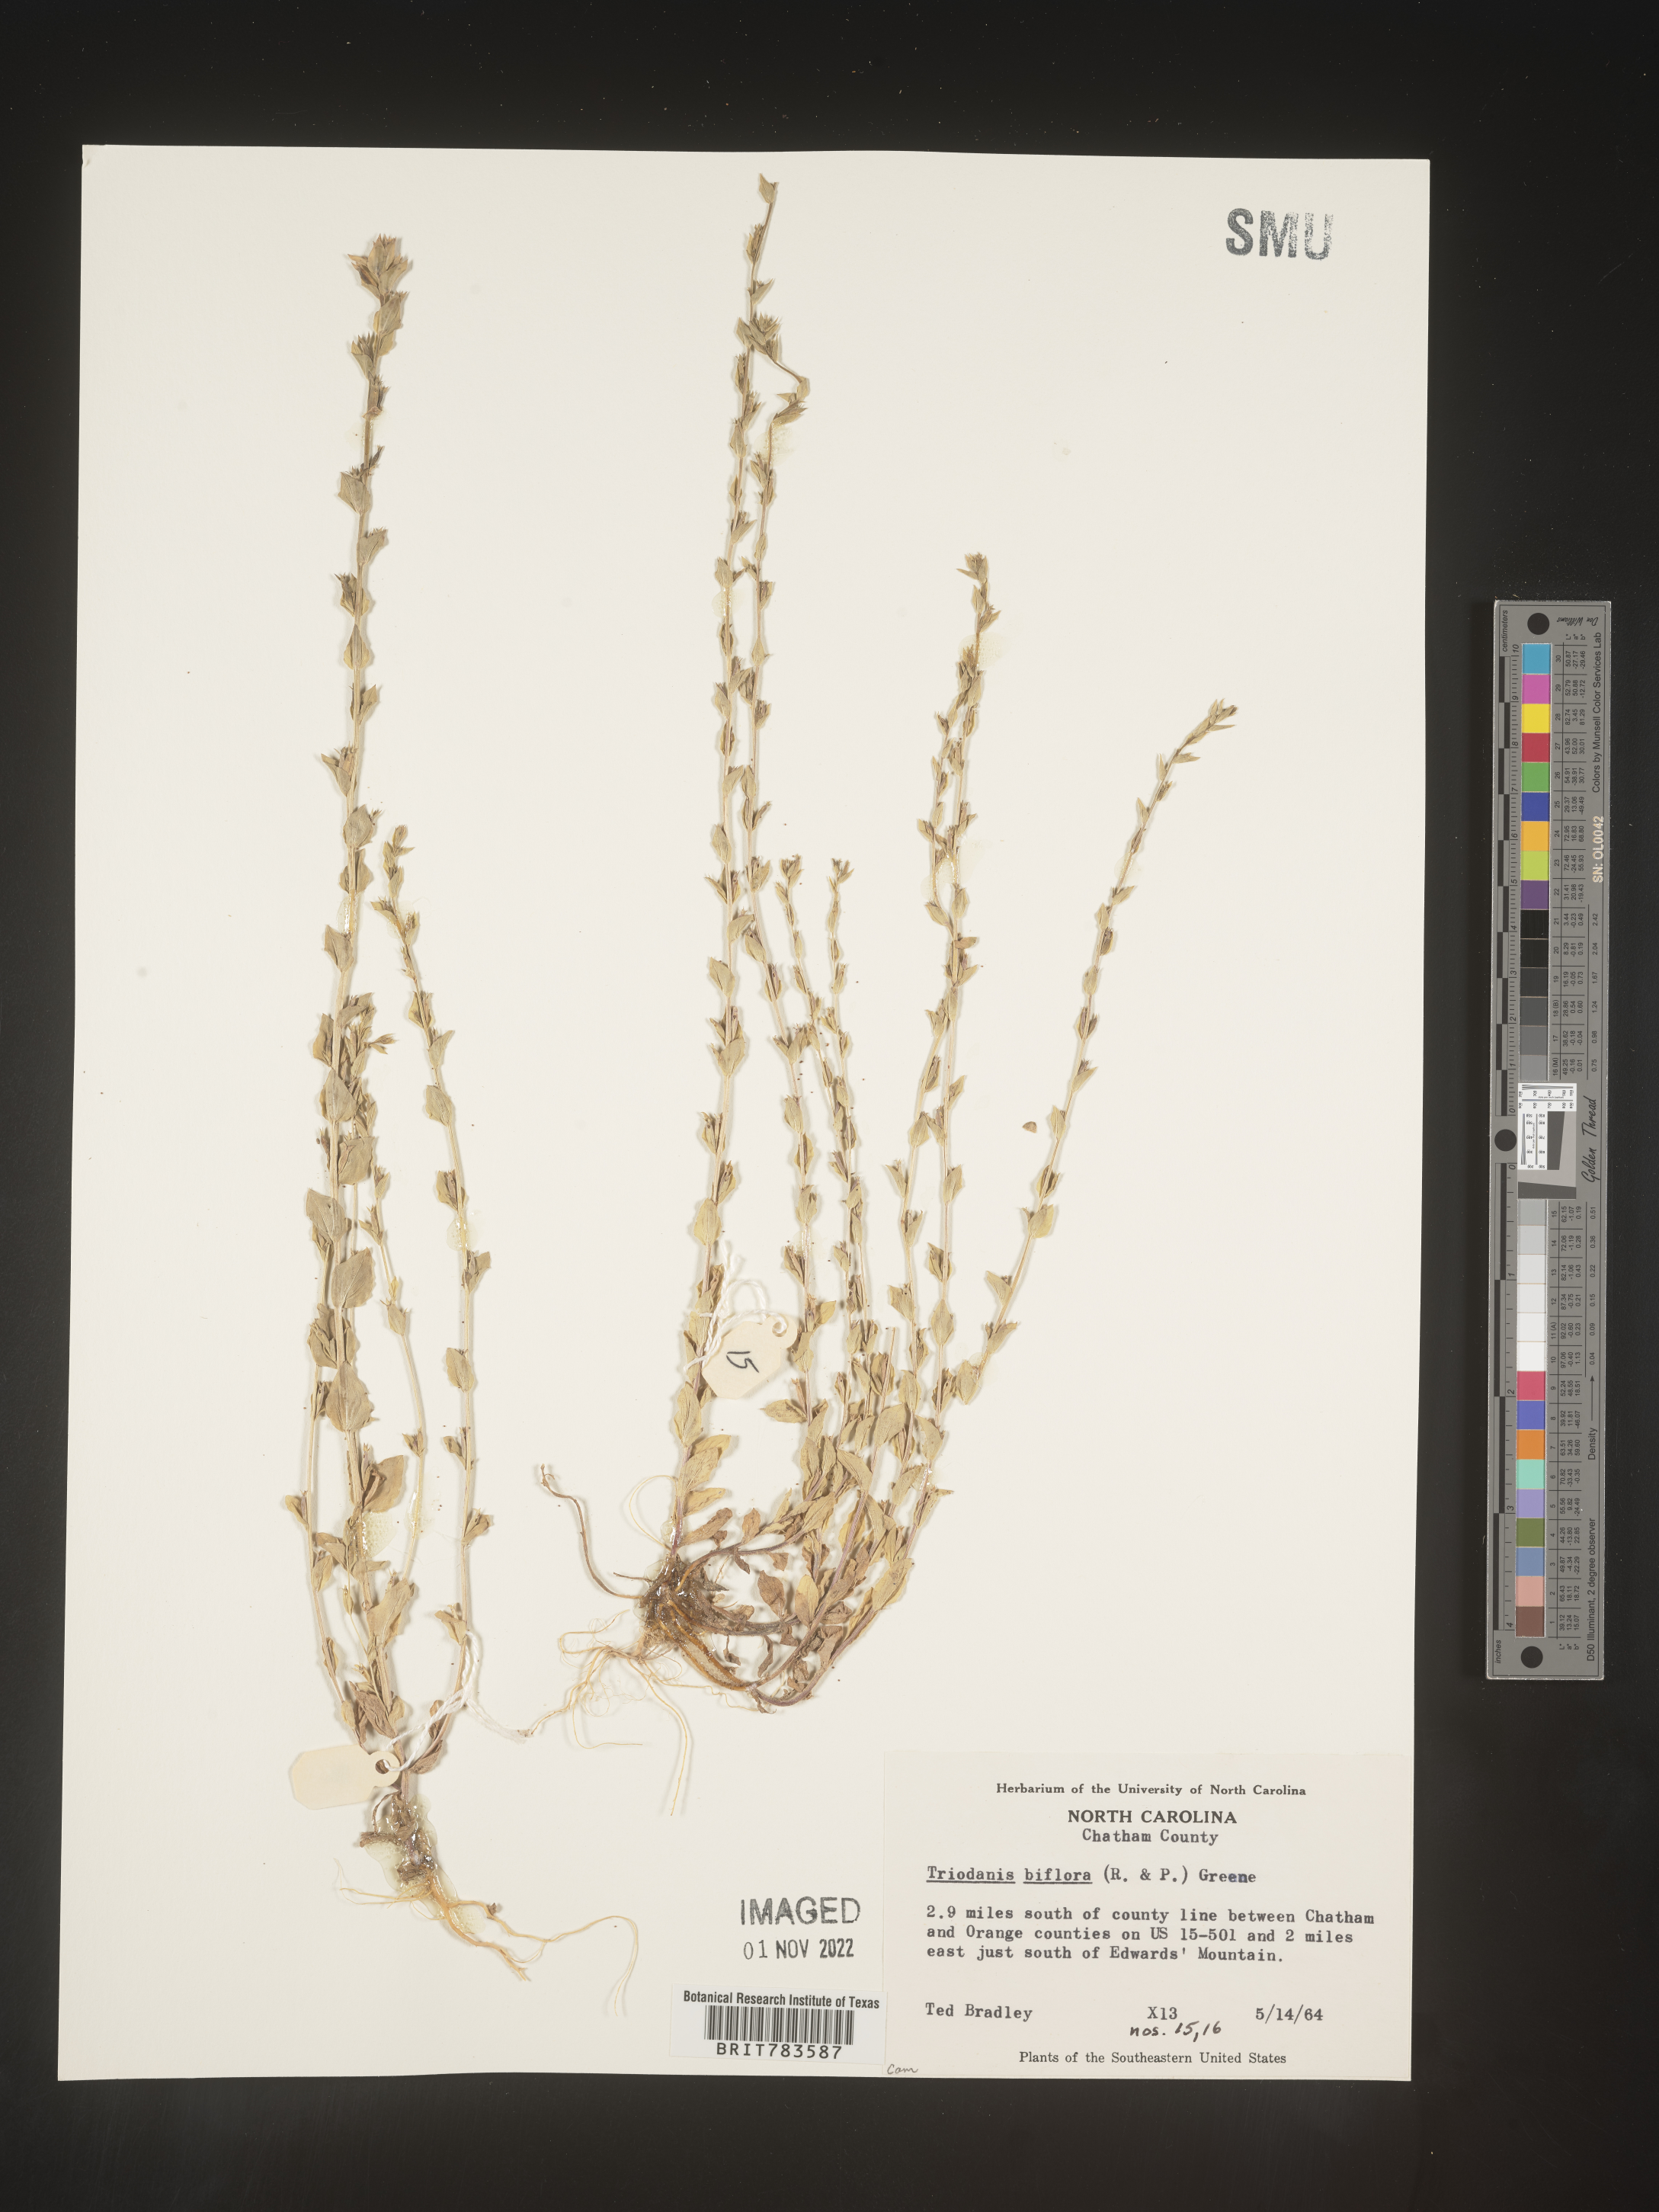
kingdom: Plantae
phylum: Tracheophyta
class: Magnoliopsida
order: Asterales
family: Campanulaceae
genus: Triodanis
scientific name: Triodanis perfoliata
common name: Clasping venus' looking-glass
